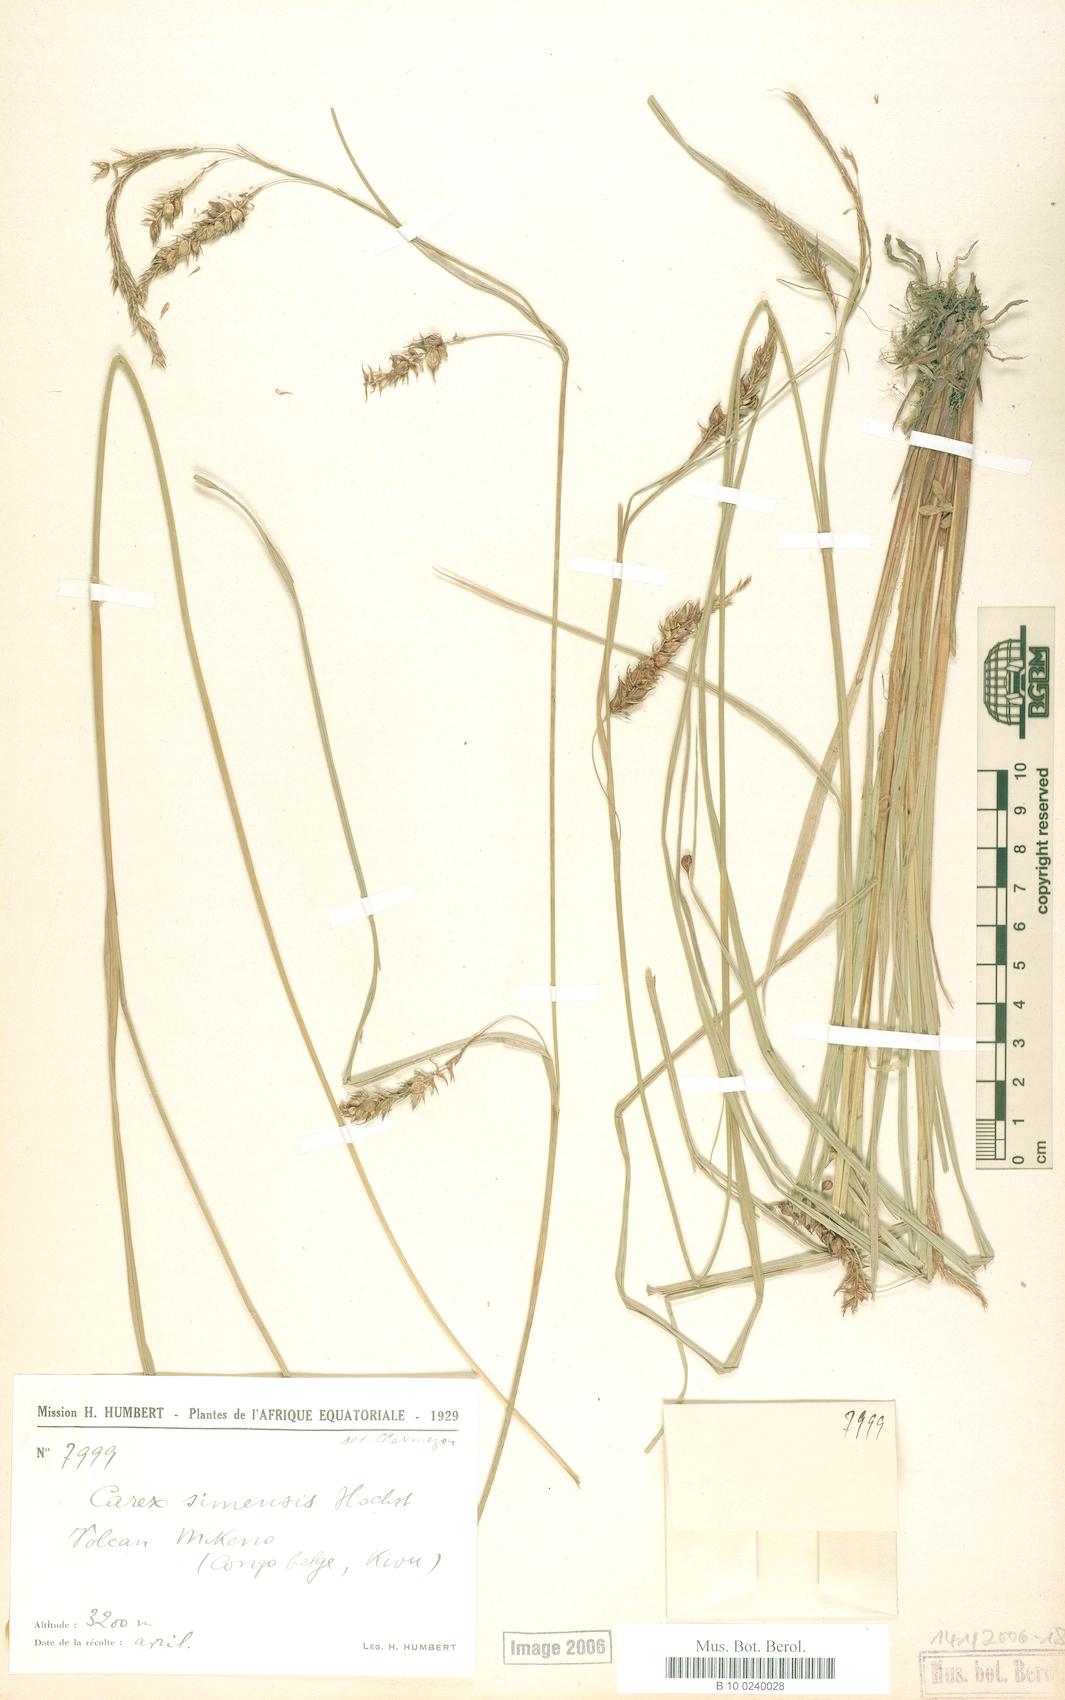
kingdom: Plantae
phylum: Tracheophyta
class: Liliopsida
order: Poales
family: Cyperaceae
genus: Carex
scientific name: Carex mannii
